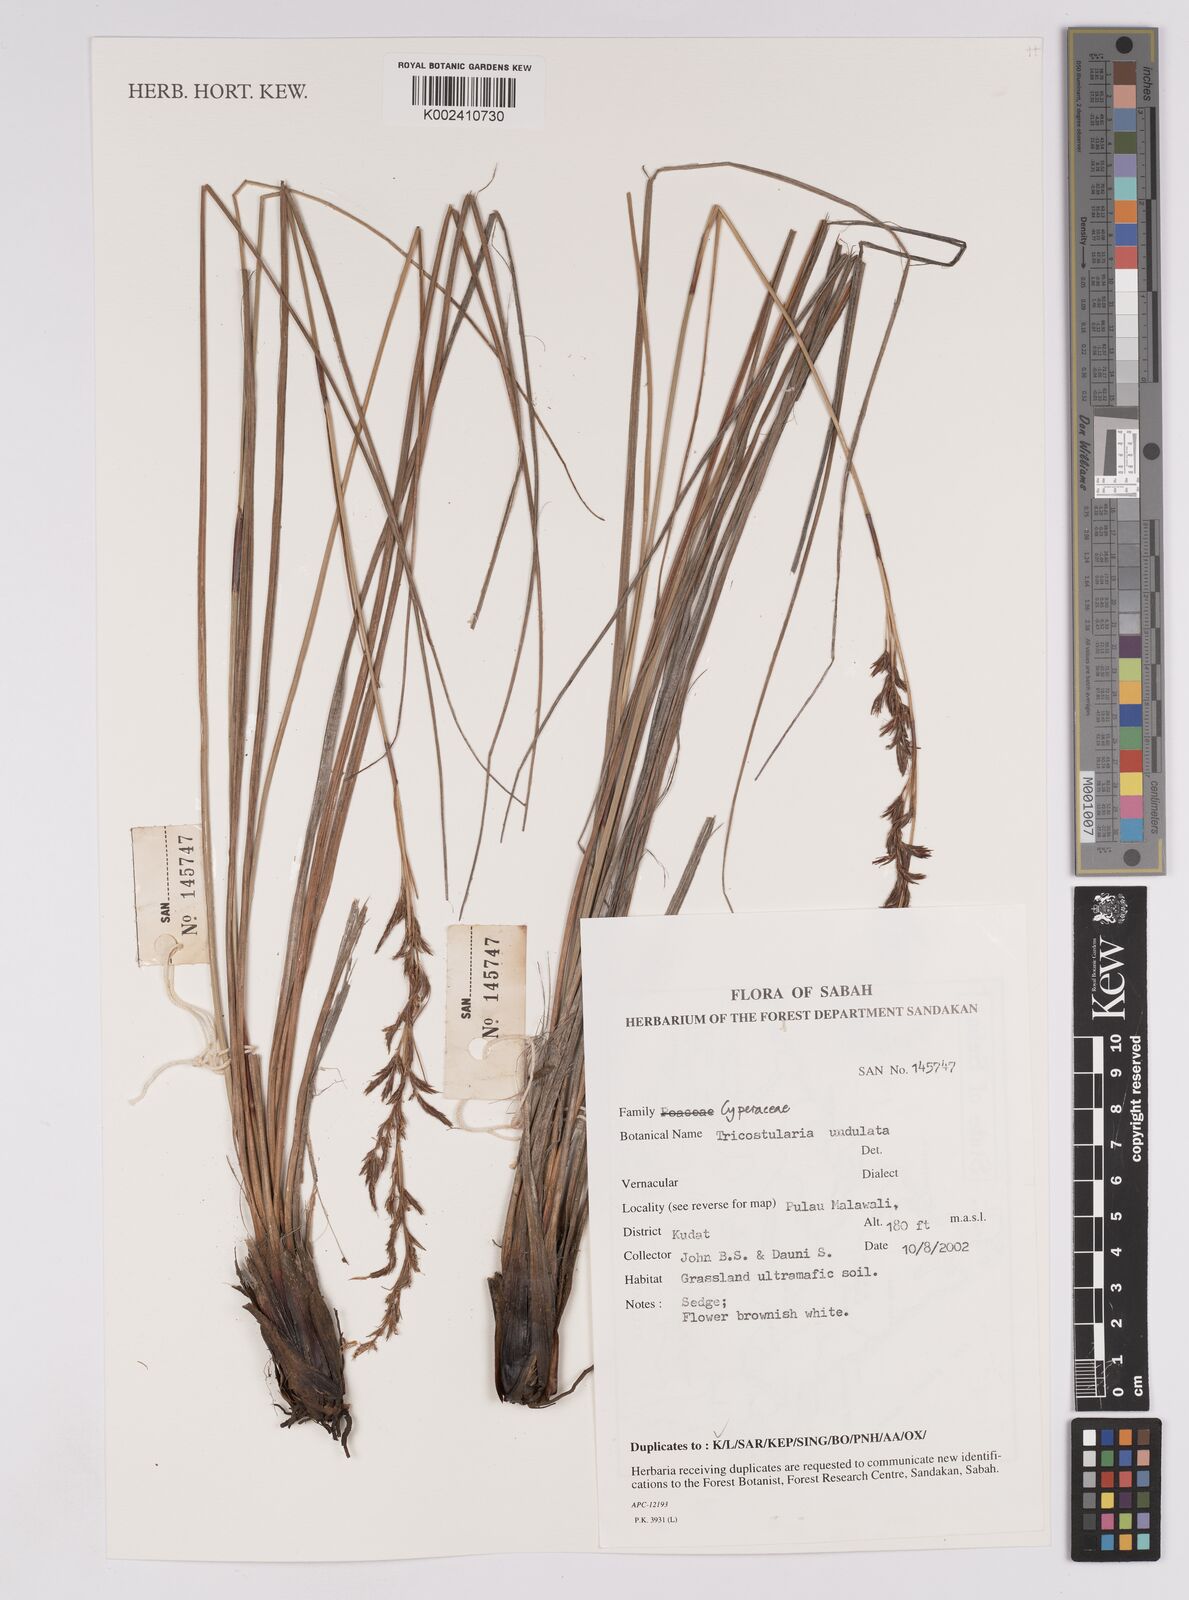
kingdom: Plantae
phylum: Tracheophyta
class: Liliopsida
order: Poales
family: Cyperaceae
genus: Anthelepis
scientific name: Anthelepis undulata
